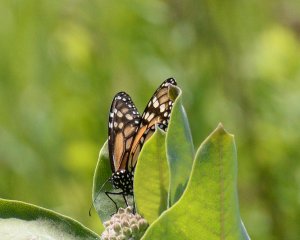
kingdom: Animalia
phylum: Arthropoda
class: Insecta
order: Lepidoptera
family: Nymphalidae
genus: Danaus
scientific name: Danaus plexippus
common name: Monarch
